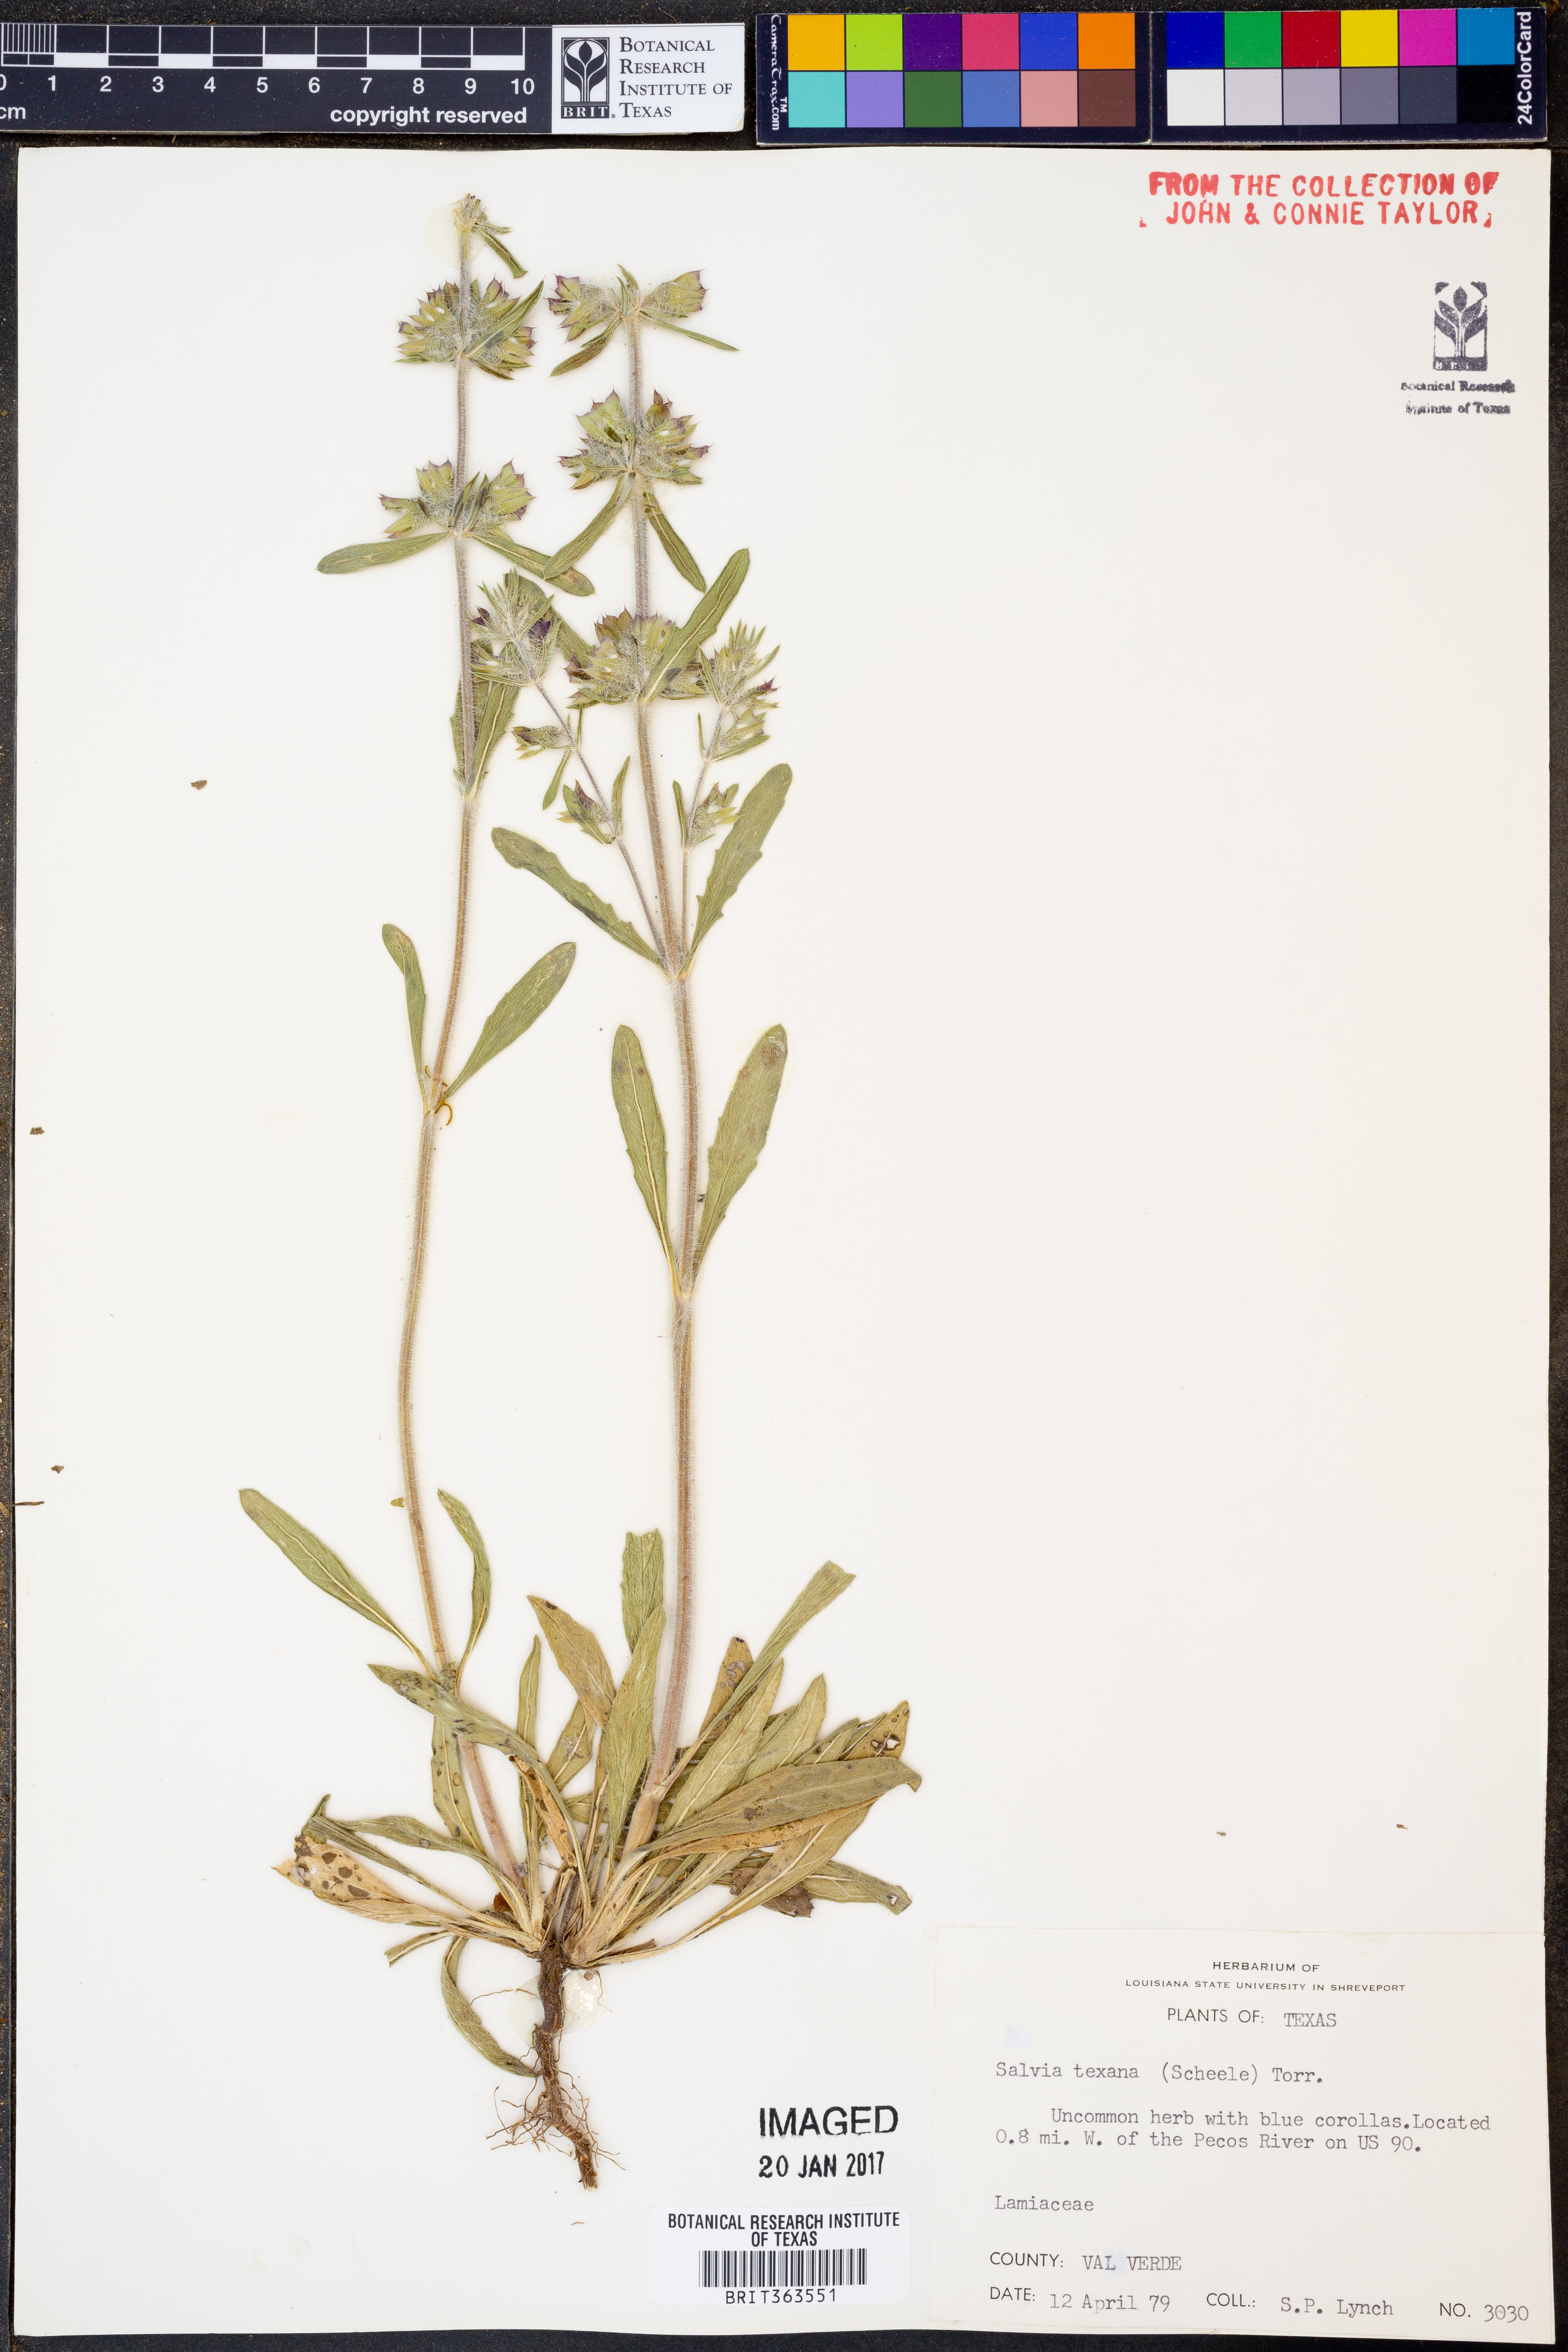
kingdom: Plantae
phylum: Tracheophyta
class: Magnoliopsida
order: Lamiales
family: Lamiaceae
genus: Salvia
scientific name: Salvia texana
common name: Texas sage
